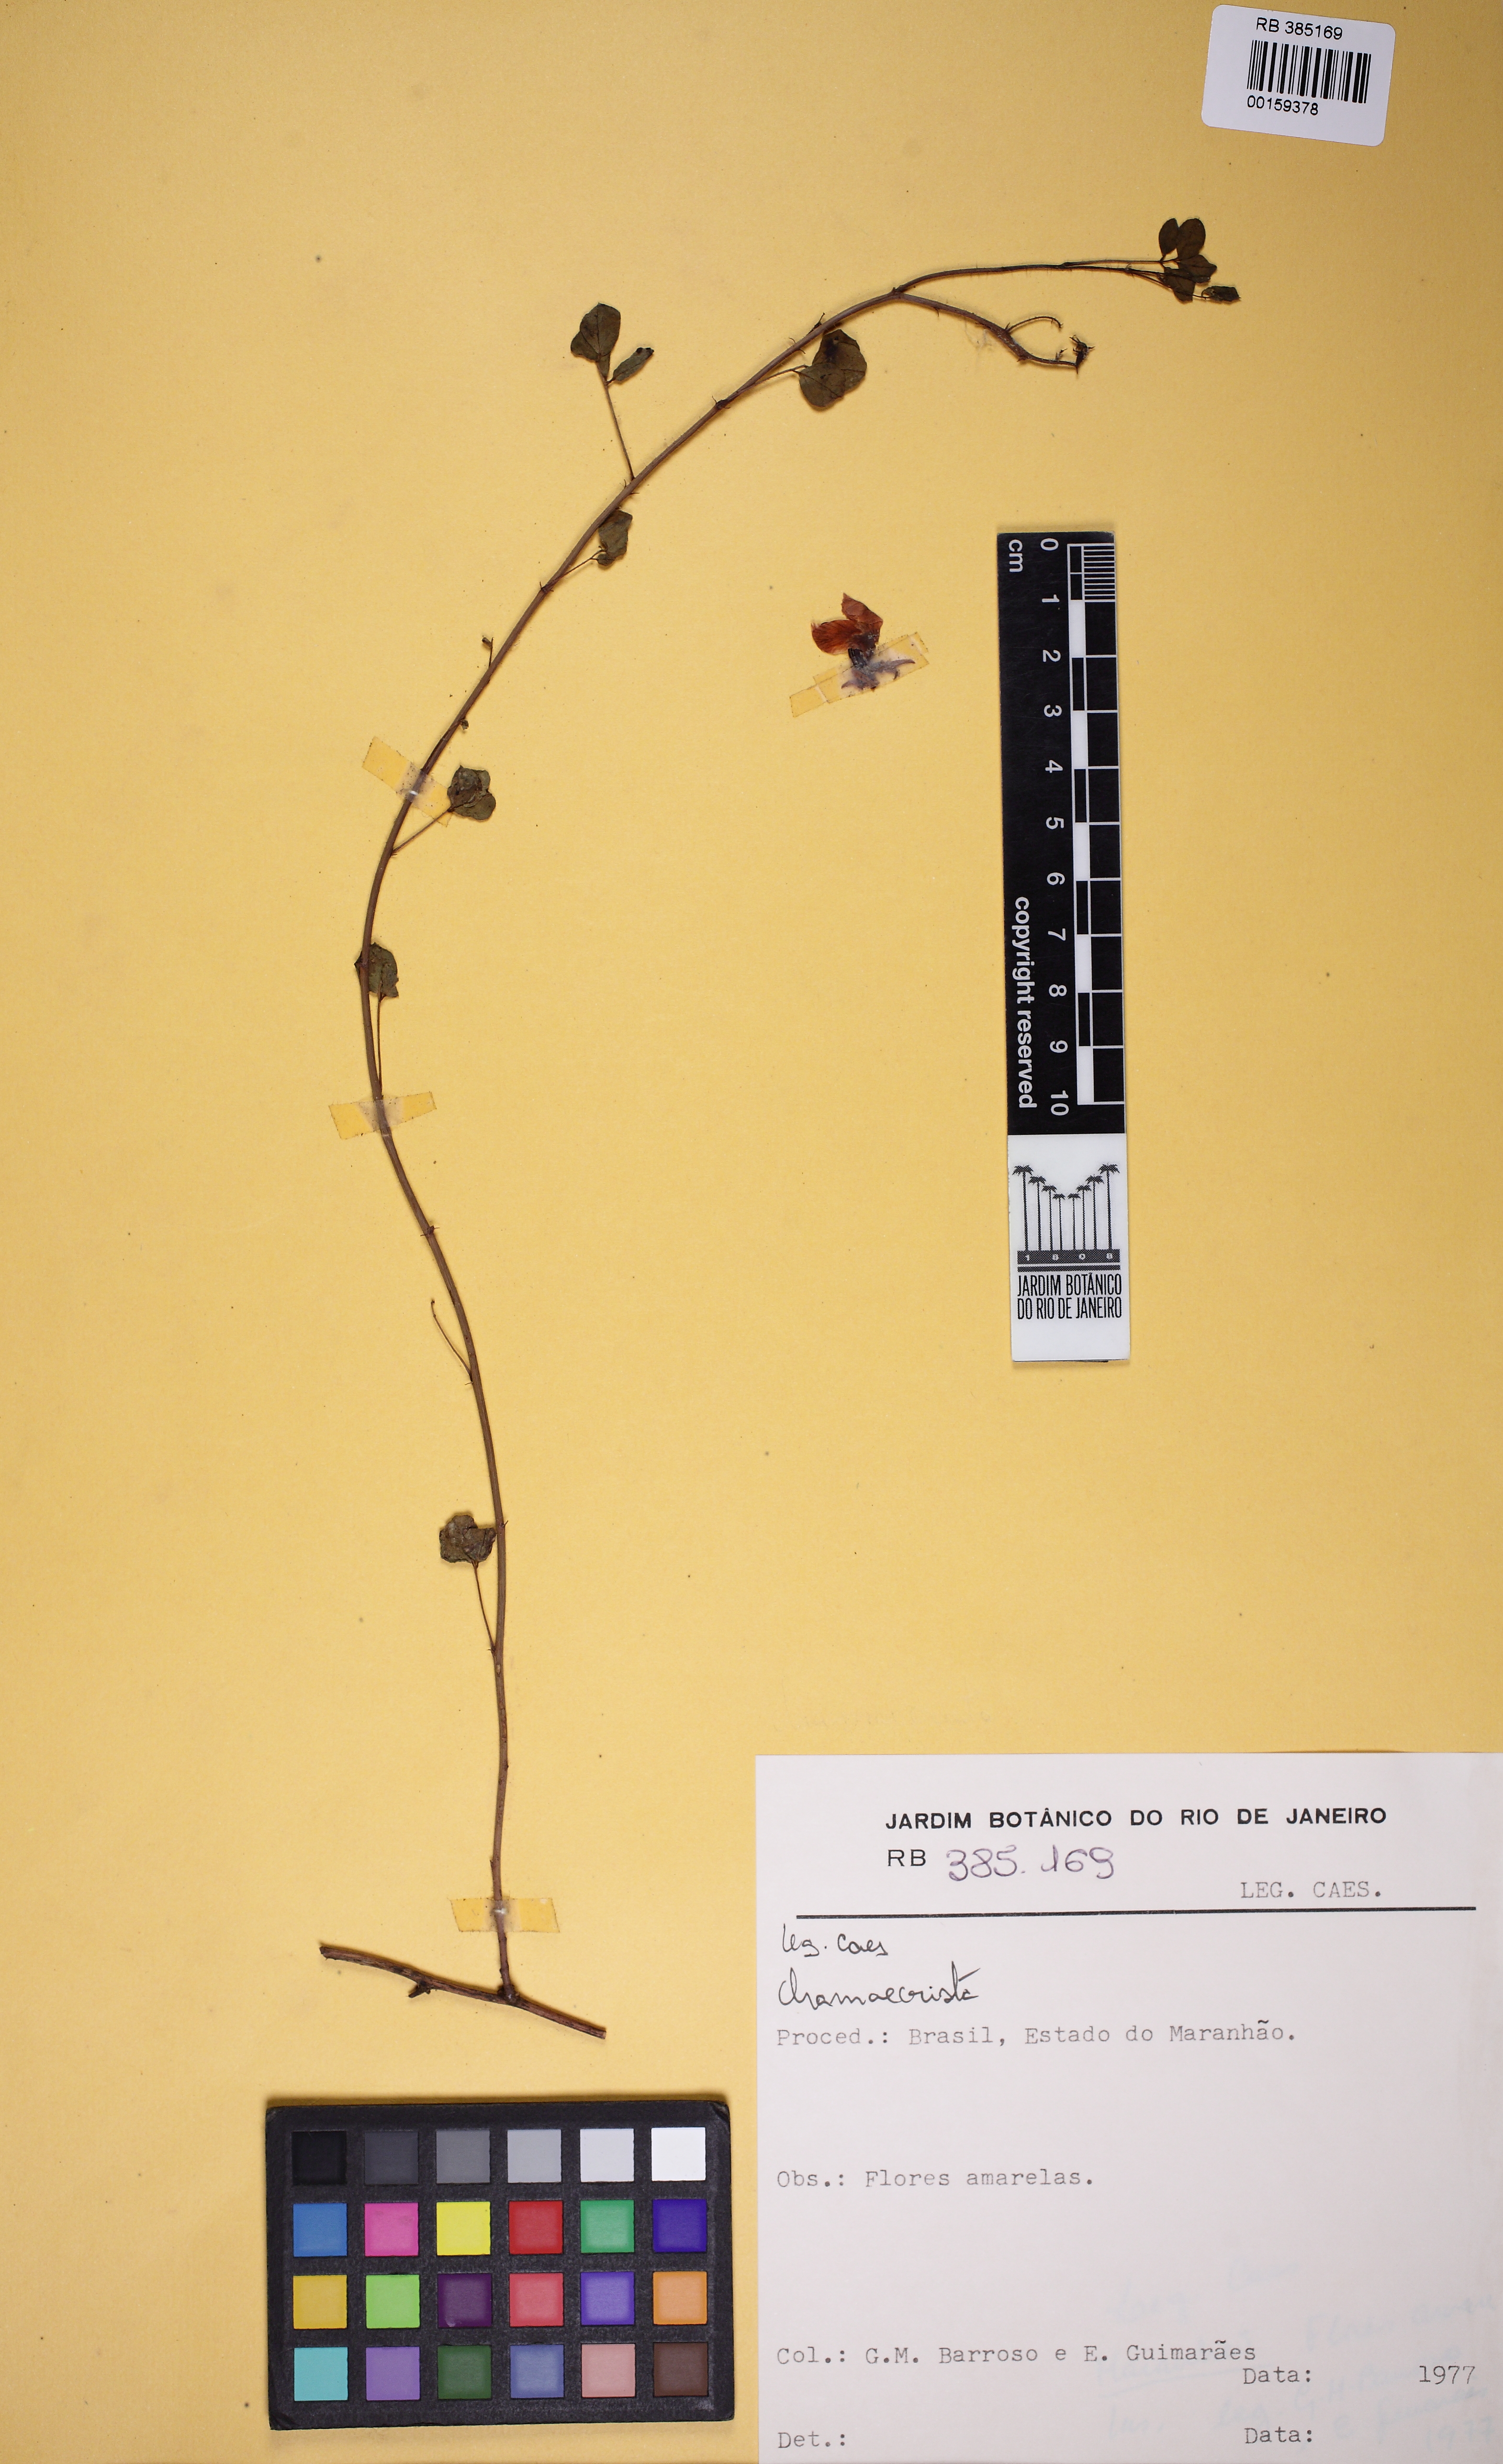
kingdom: Plantae
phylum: Tracheophyta
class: Magnoliopsida
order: Fabales
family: Fabaceae
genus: Chamaecrista
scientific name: Chamaecrista
